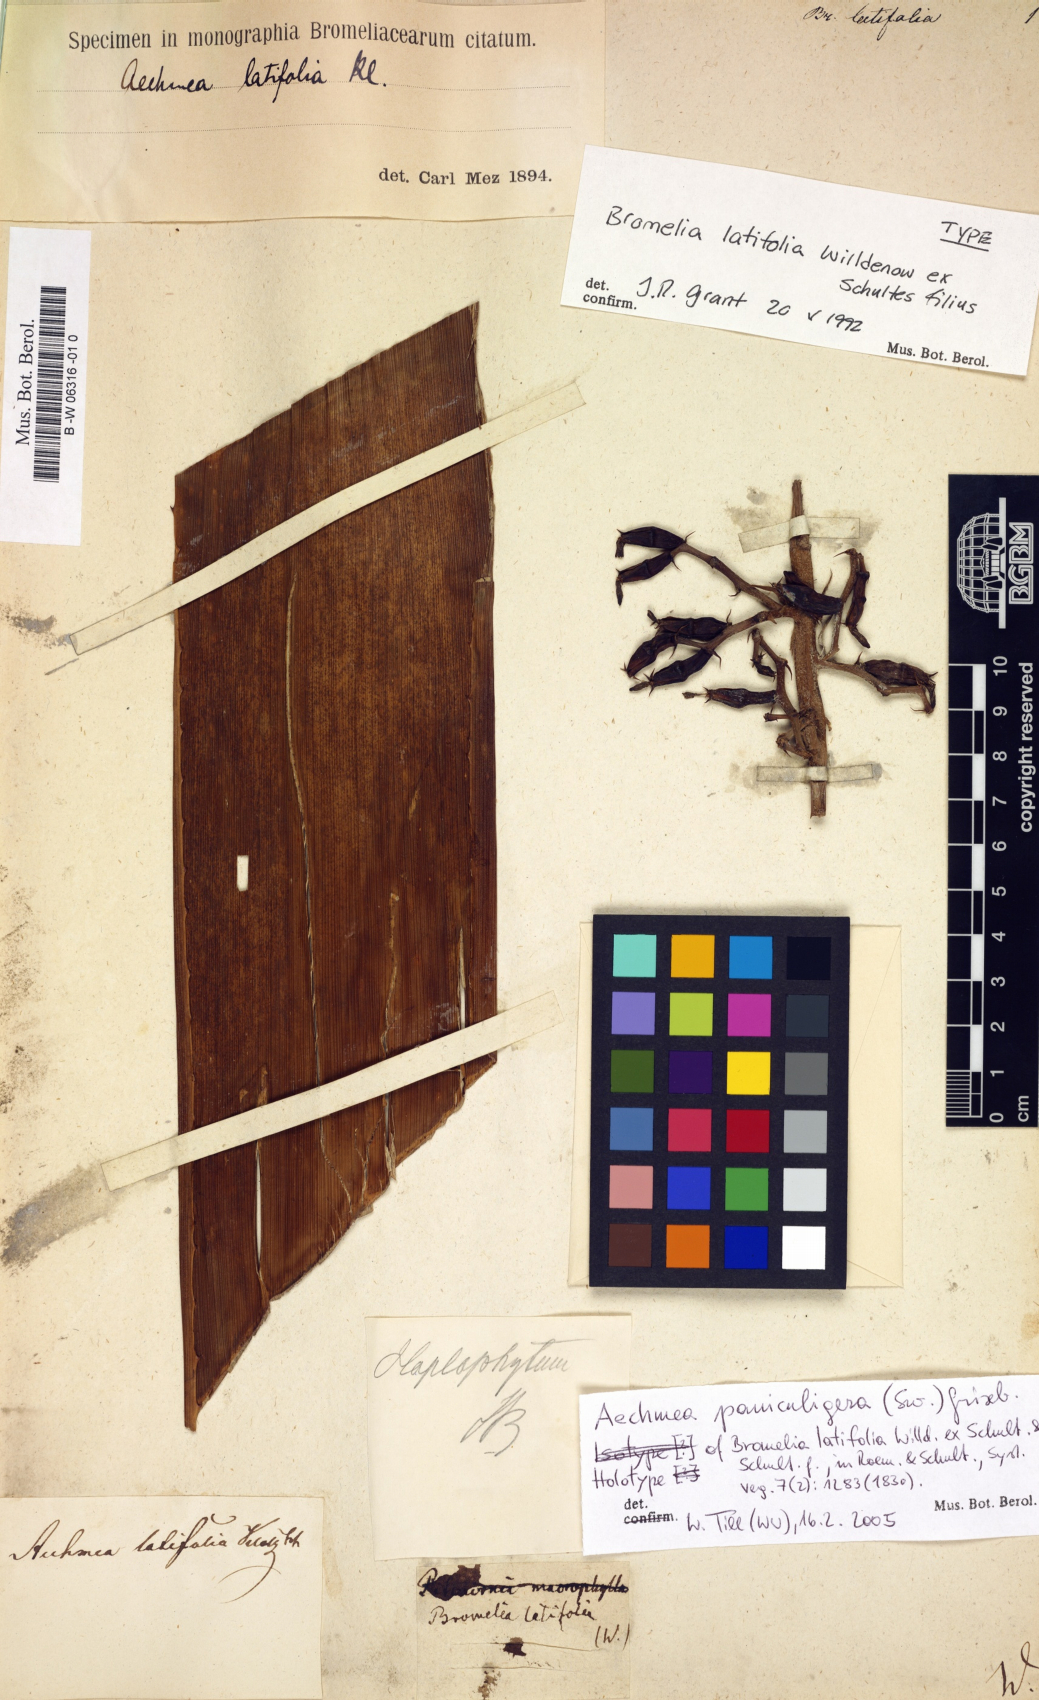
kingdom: Plantae
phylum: Tracheophyta
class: Liliopsida
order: Poales
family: Bromeliaceae
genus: Aechmea
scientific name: Aechmea latifolia
